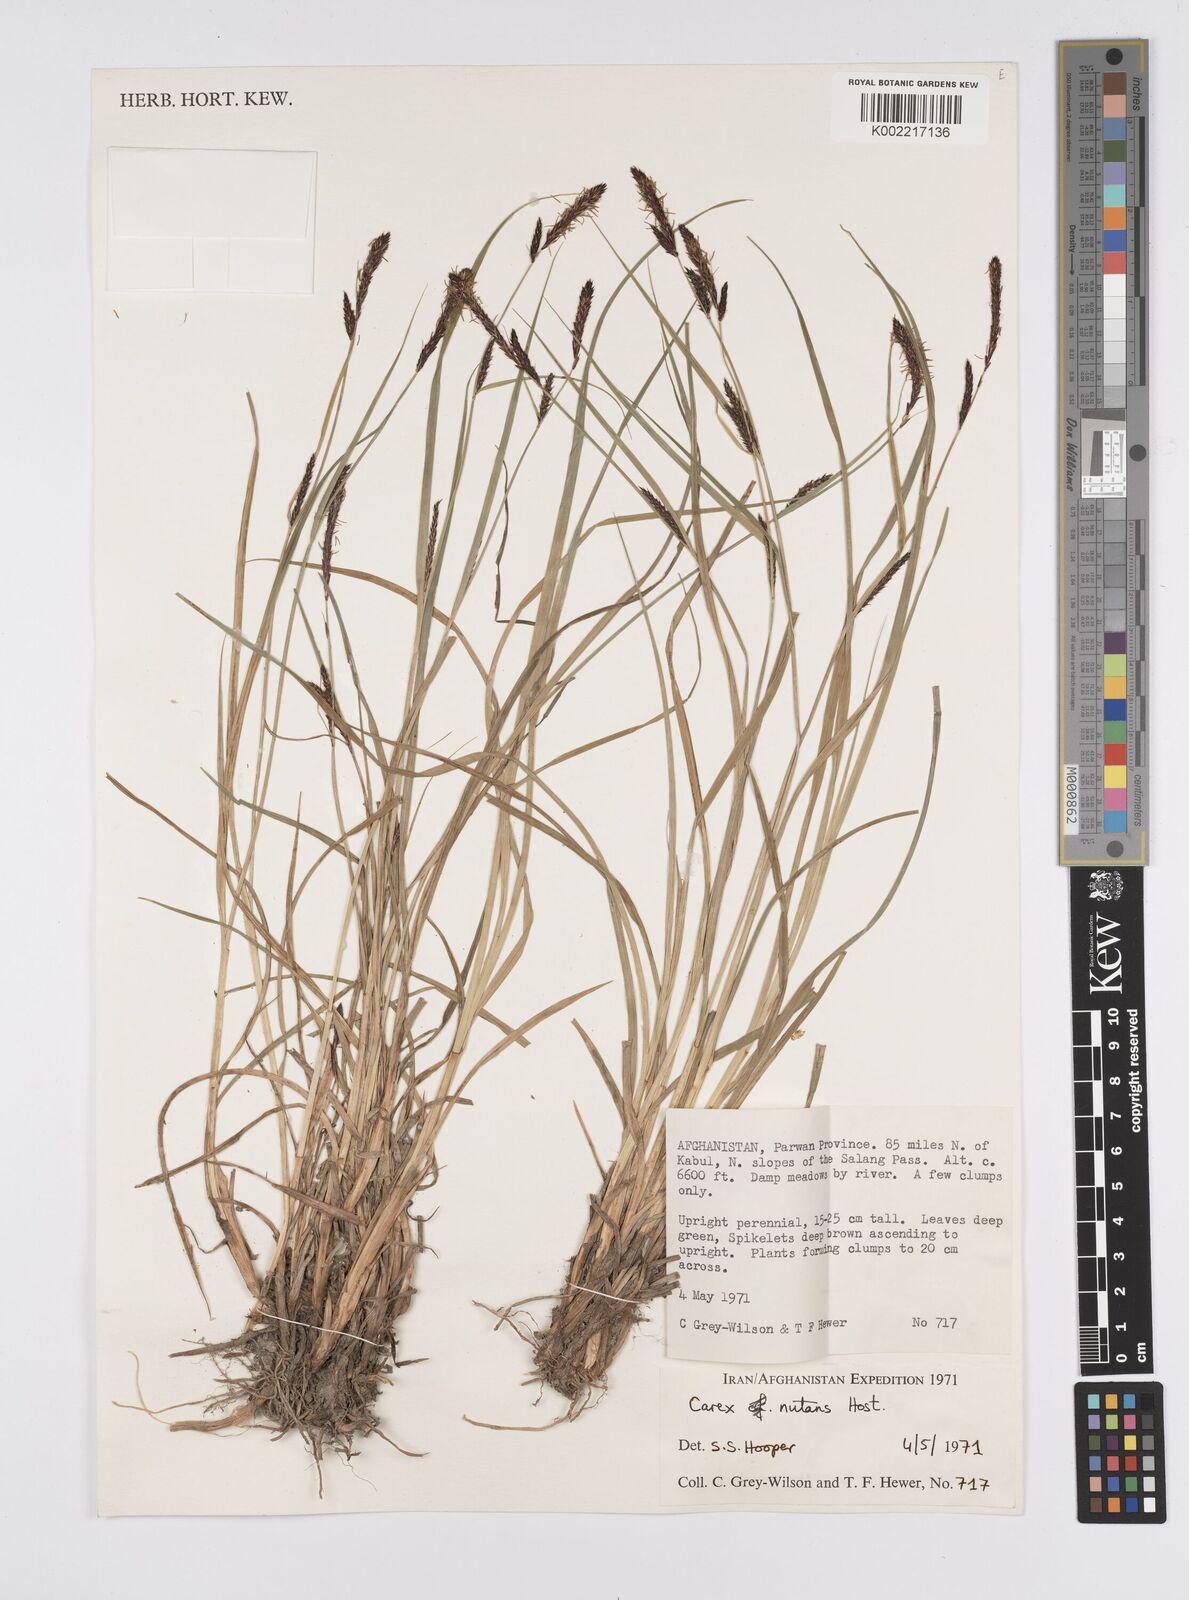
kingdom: Plantae
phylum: Tracheophyta
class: Liliopsida
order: Poales
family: Cyperaceae
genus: Carex
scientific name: Carex melanostachya
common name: Black-spiked sedge
